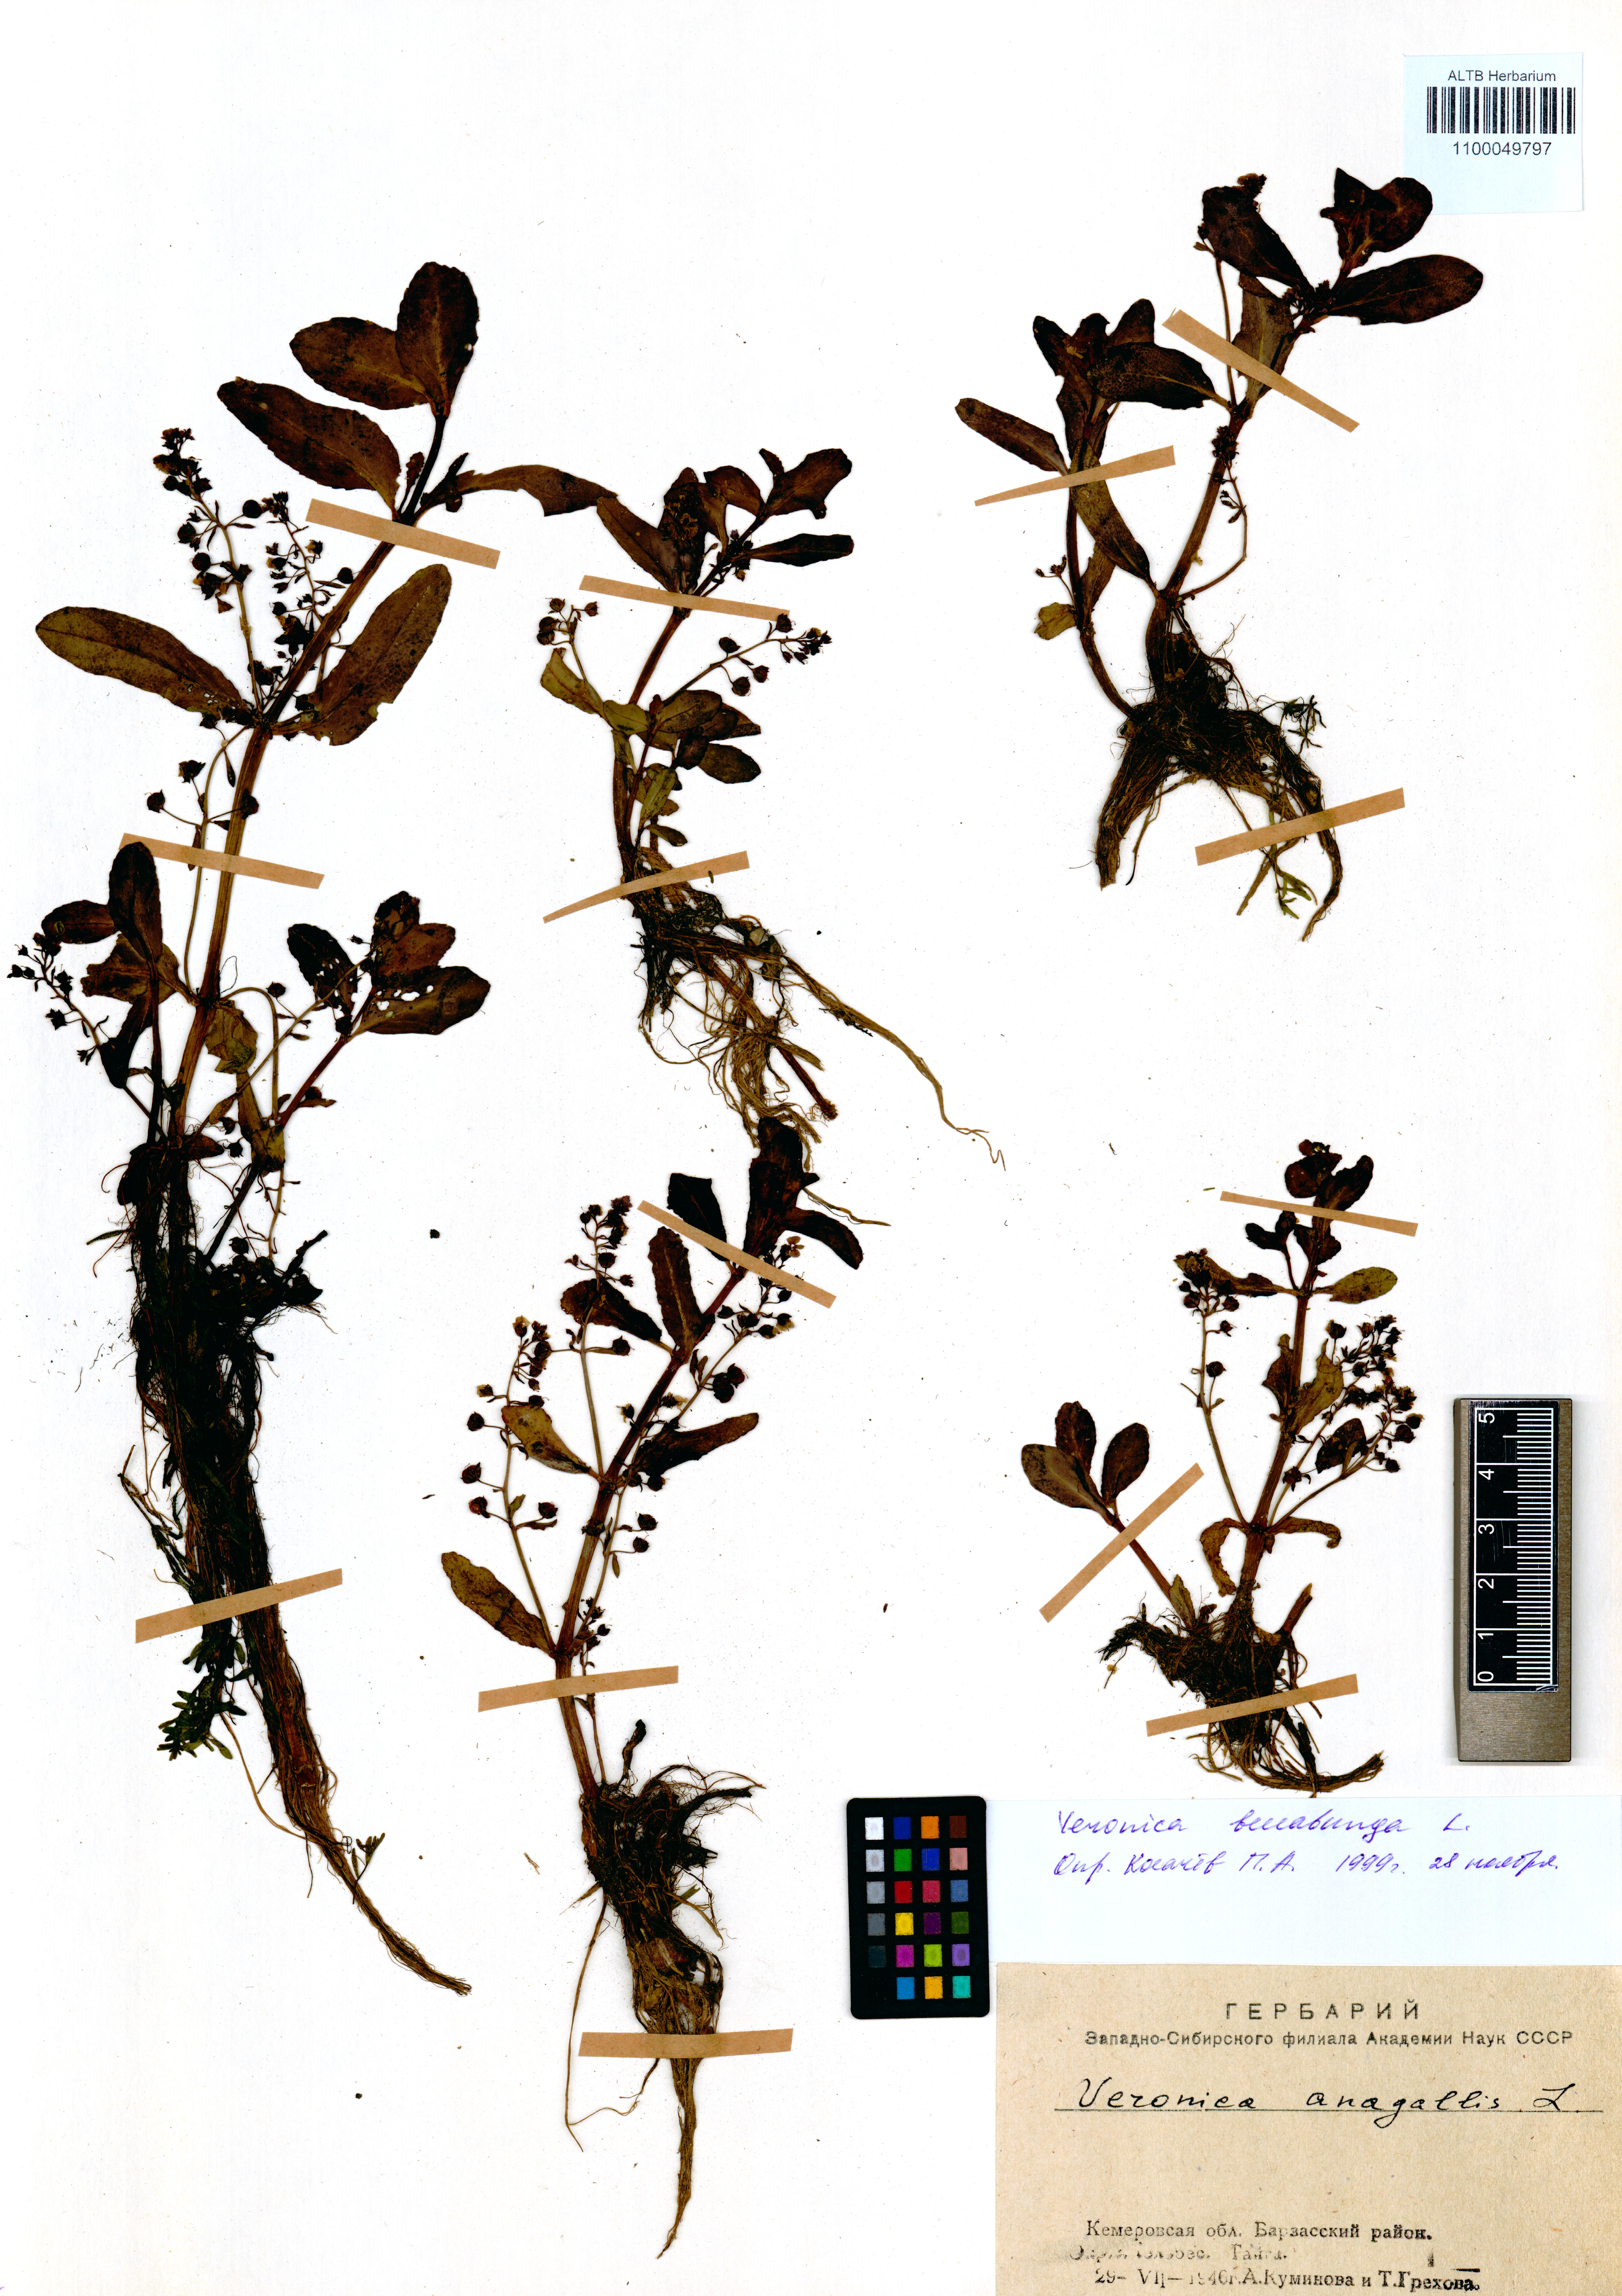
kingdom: Plantae
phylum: Tracheophyta
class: Magnoliopsida
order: Lamiales
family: Plantaginaceae
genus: Veronica
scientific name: Veronica beccabunga
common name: Brooklime
